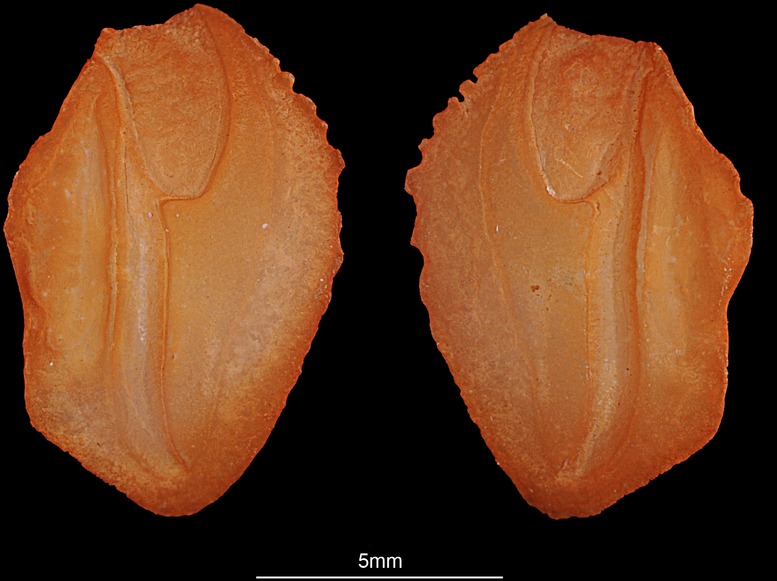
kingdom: Animalia
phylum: Chordata
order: Perciformes
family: Lactariidae
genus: Lactarius
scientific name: Lactarius lactarius
